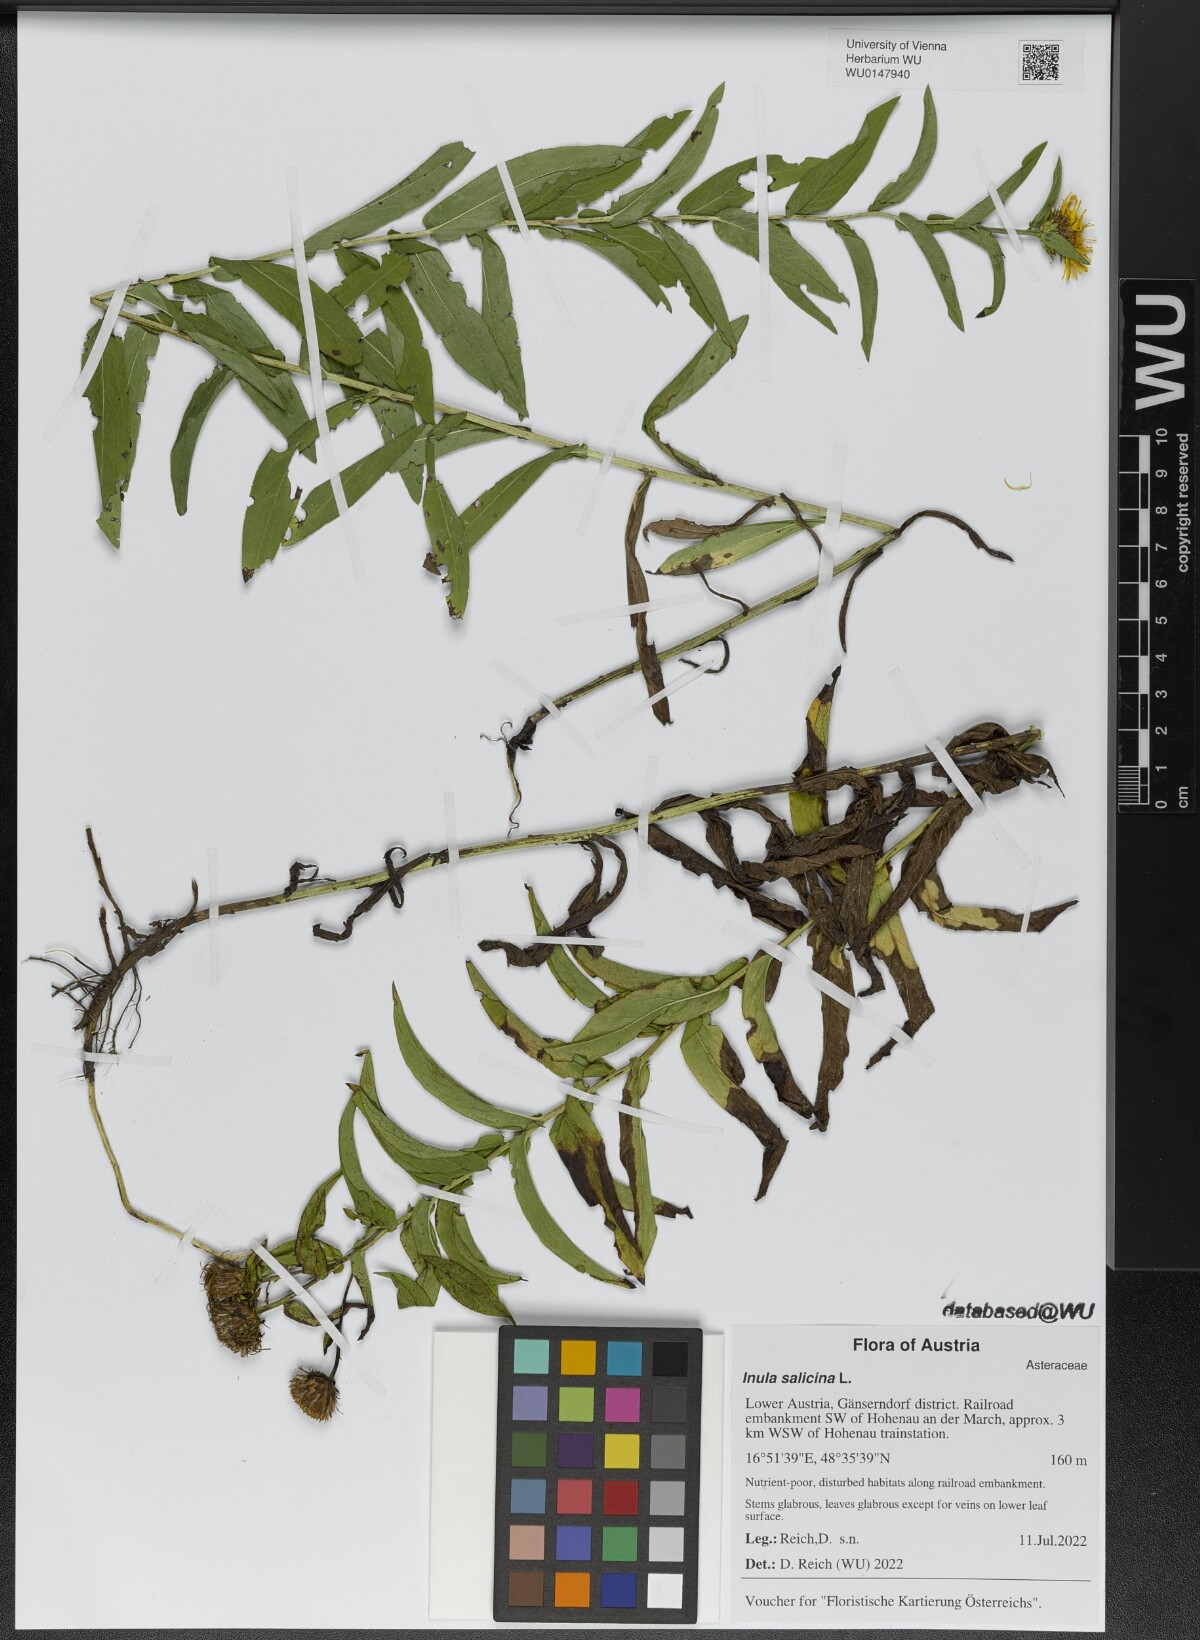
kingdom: Plantae
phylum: Tracheophyta
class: Magnoliopsida
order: Asterales
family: Asteraceae
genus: Pentanema
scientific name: Pentanema salicinum
